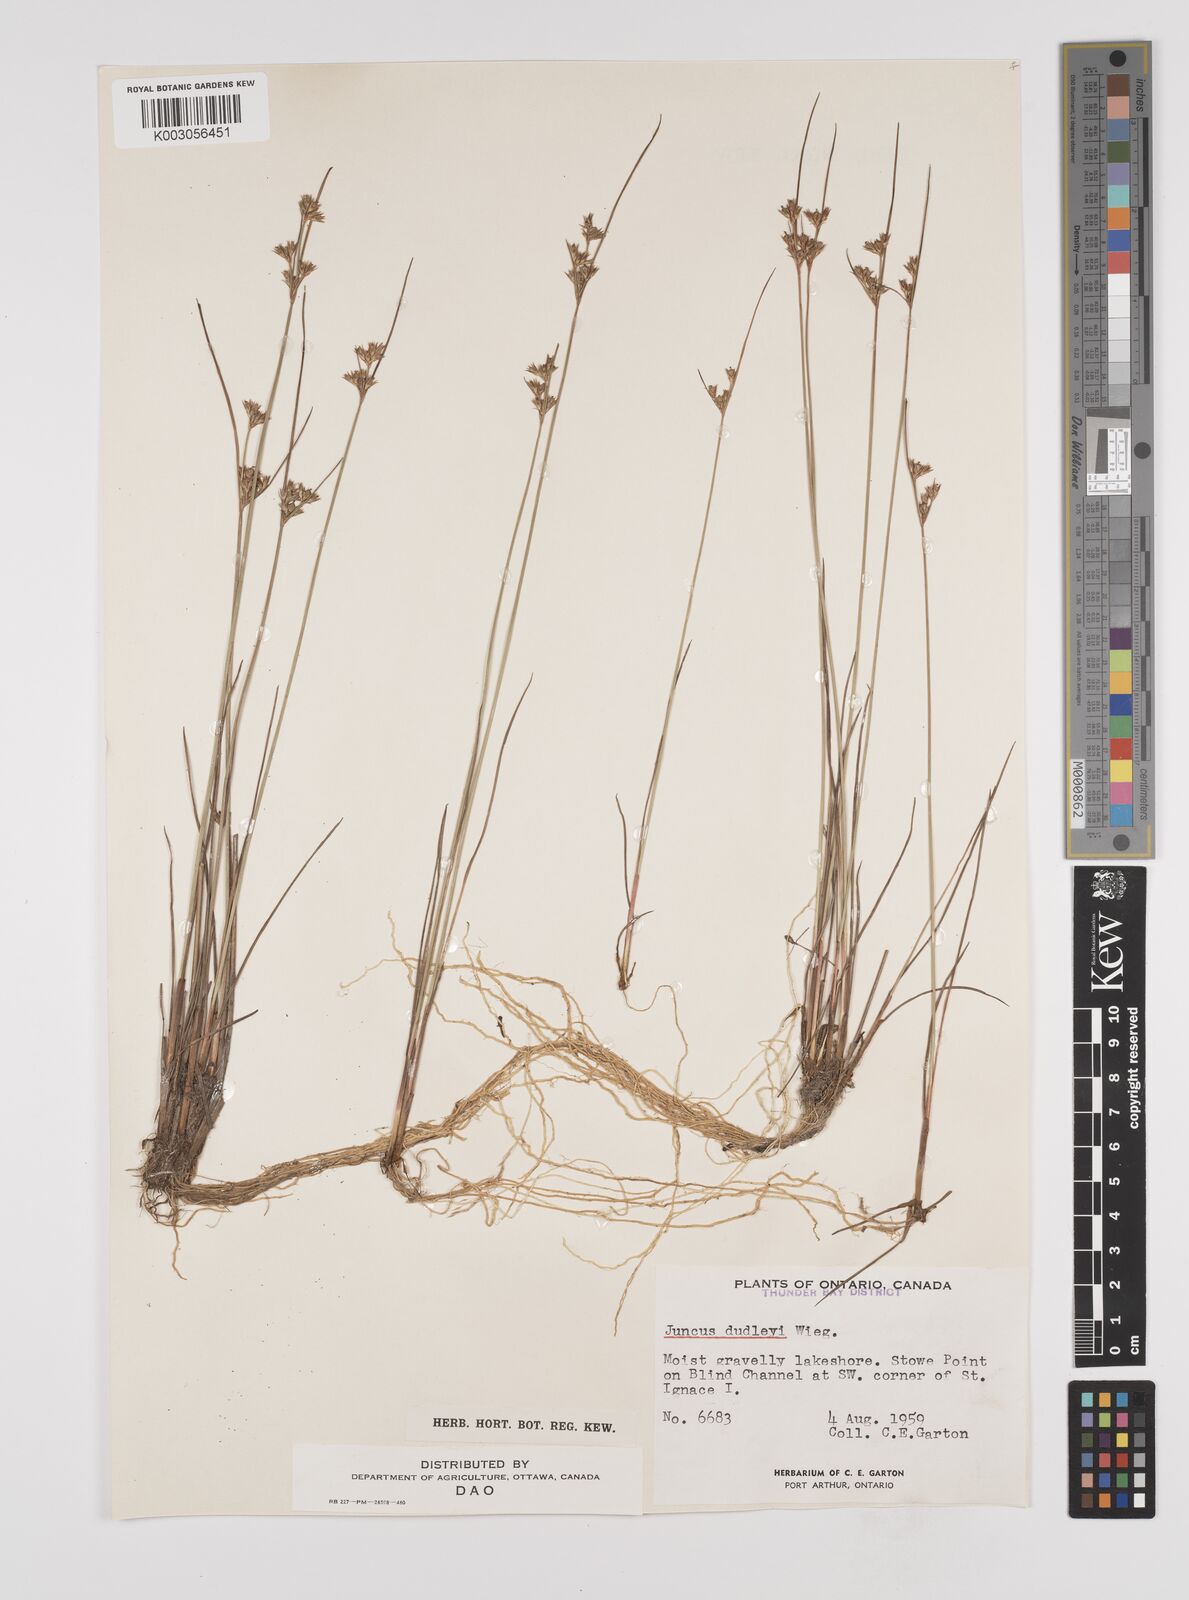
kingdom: Plantae
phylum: Tracheophyta
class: Liliopsida
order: Poales
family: Juncaceae
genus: Juncus
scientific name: Juncus dudleyi
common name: Dudley's rush
